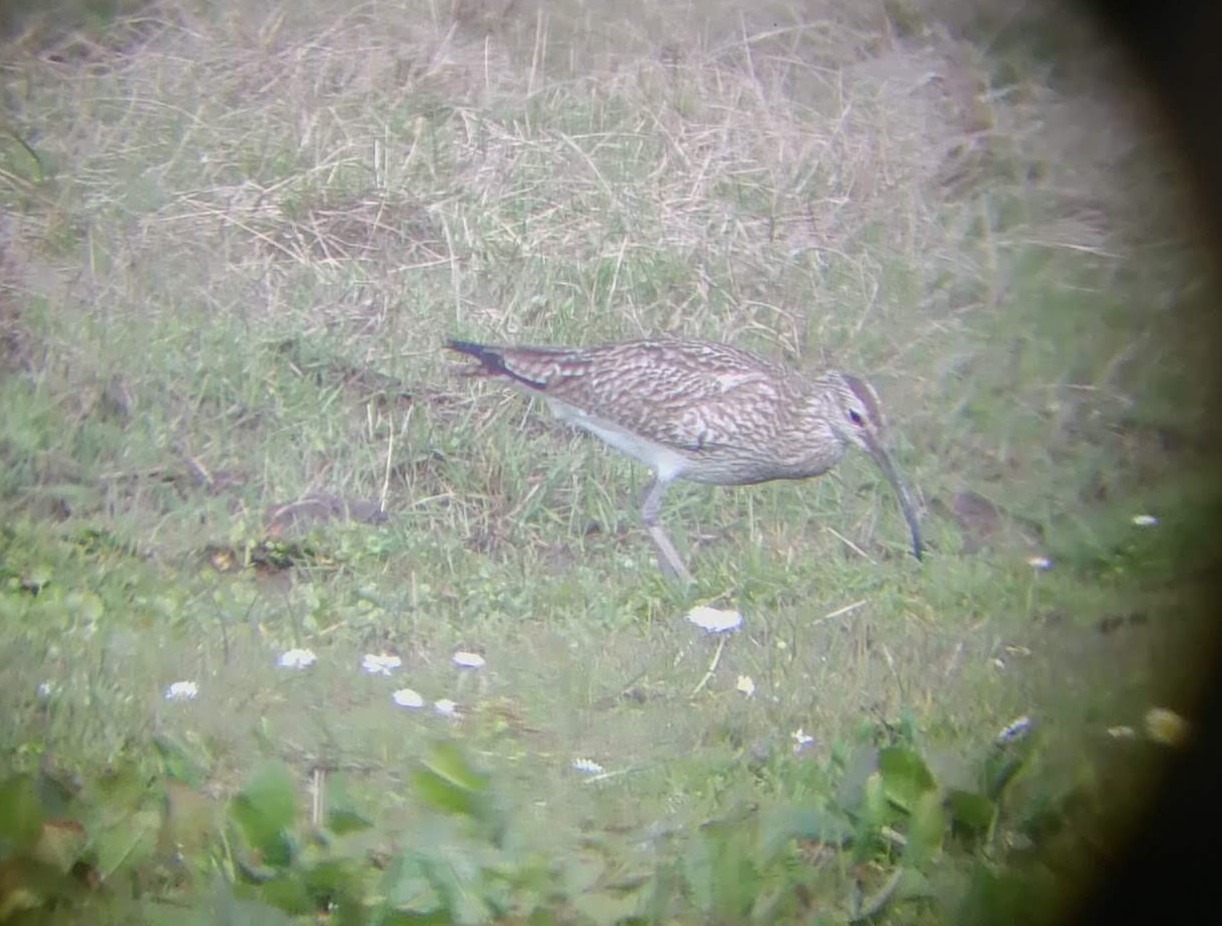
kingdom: Animalia
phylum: Chordata
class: Aves
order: Charadriiformes
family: Scolopacidae
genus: Numenius
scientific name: Numenius phaeopus
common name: Småspove
